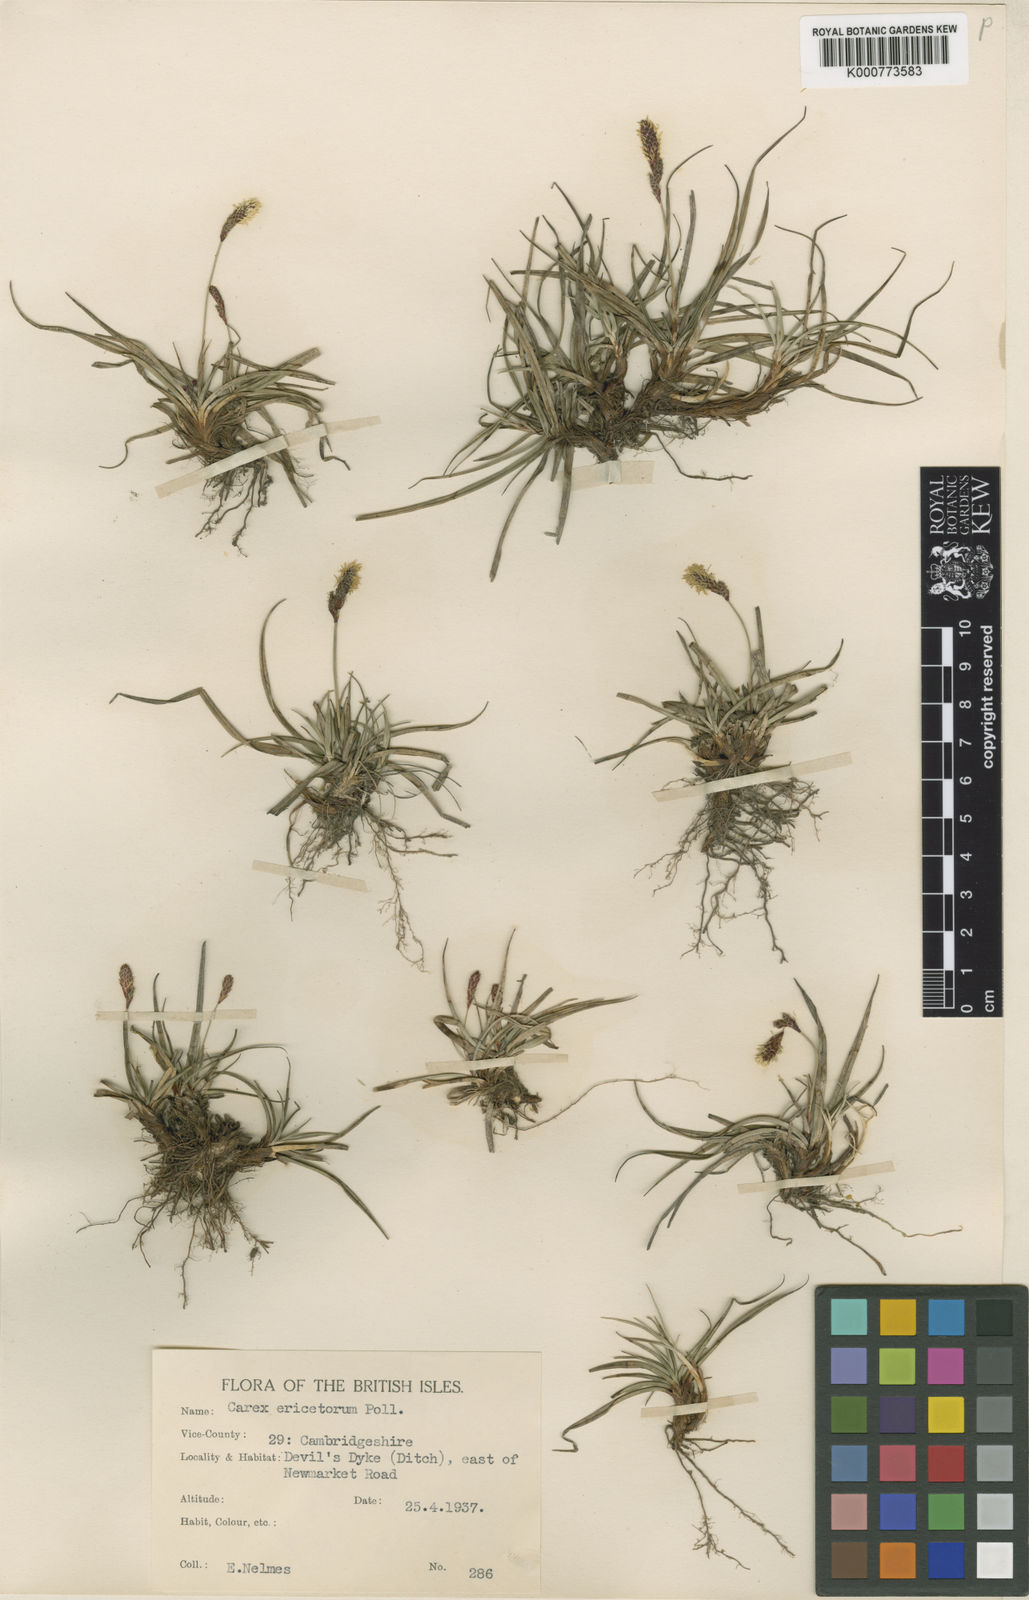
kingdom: Plantae
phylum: Tracheophyta
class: Liliopsida
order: Poales
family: Cyperaceae
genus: Carex
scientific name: Carex ericetorum
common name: Rare spring-sedge
